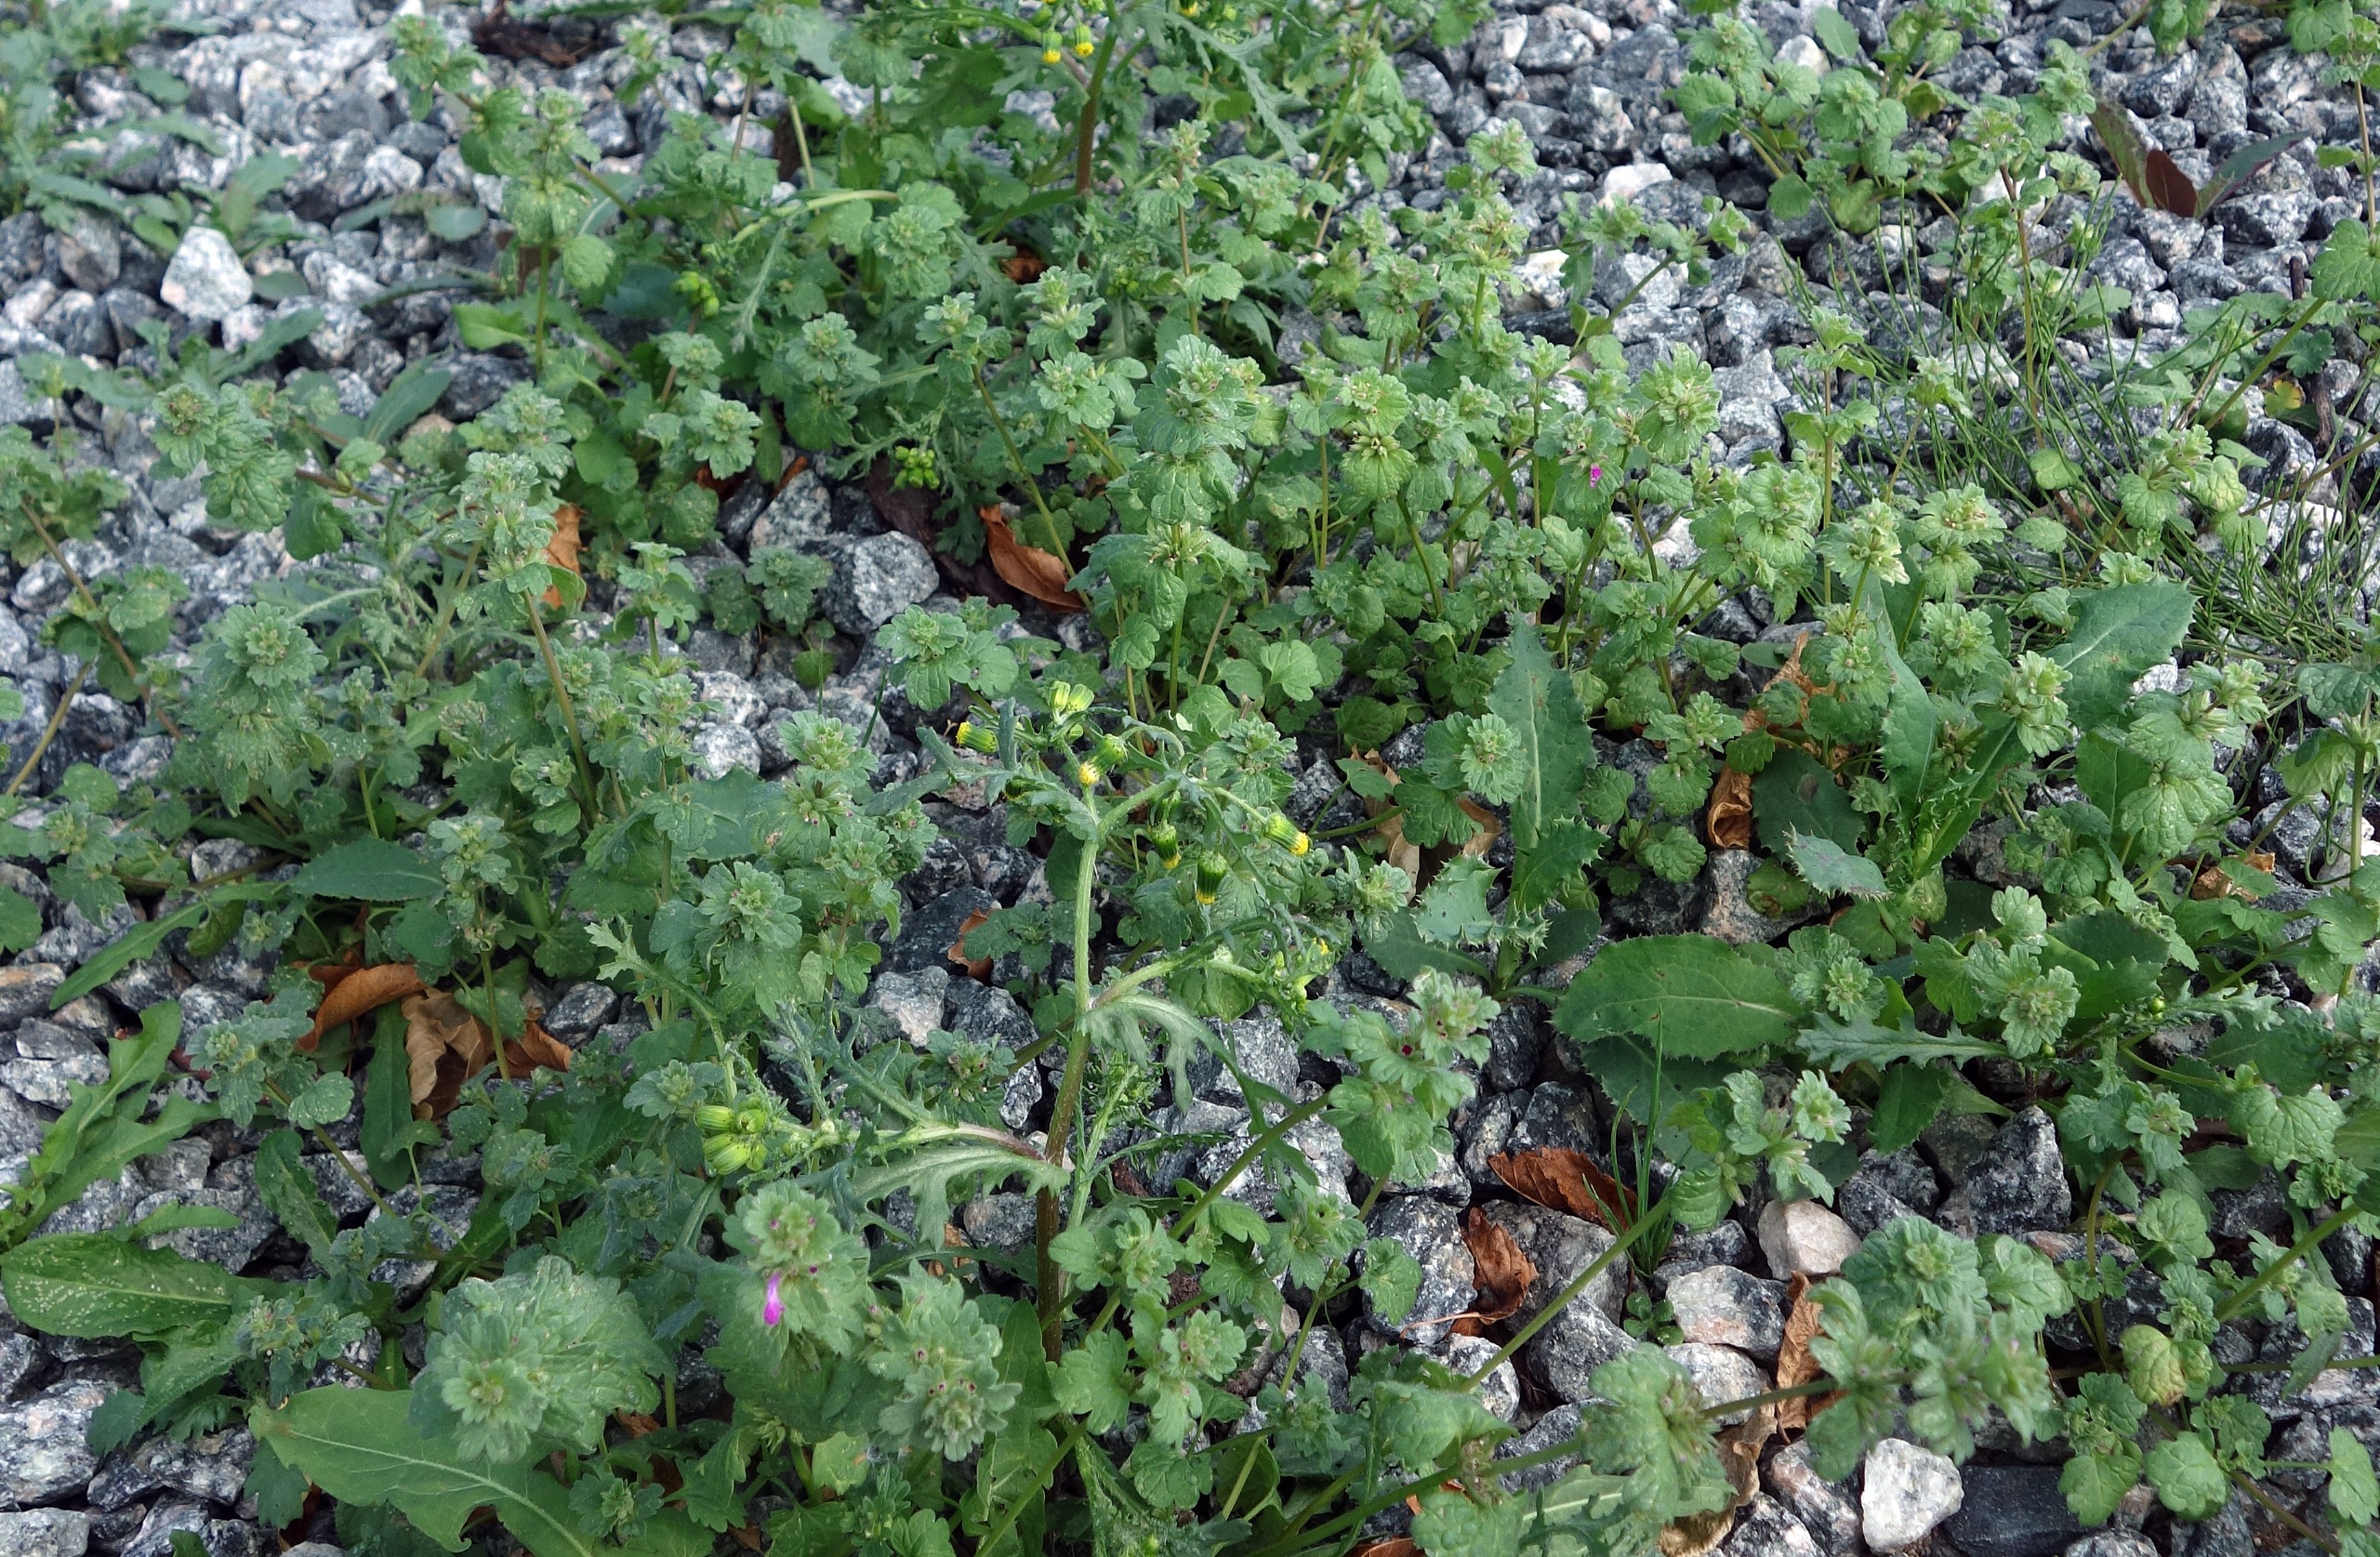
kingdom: Plantae
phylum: Tracheophyta
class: Magnoliopsida
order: Lamiales
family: Lamiaceae
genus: Lamium
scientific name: Lamium amplexicaule
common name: Liden tvetand
